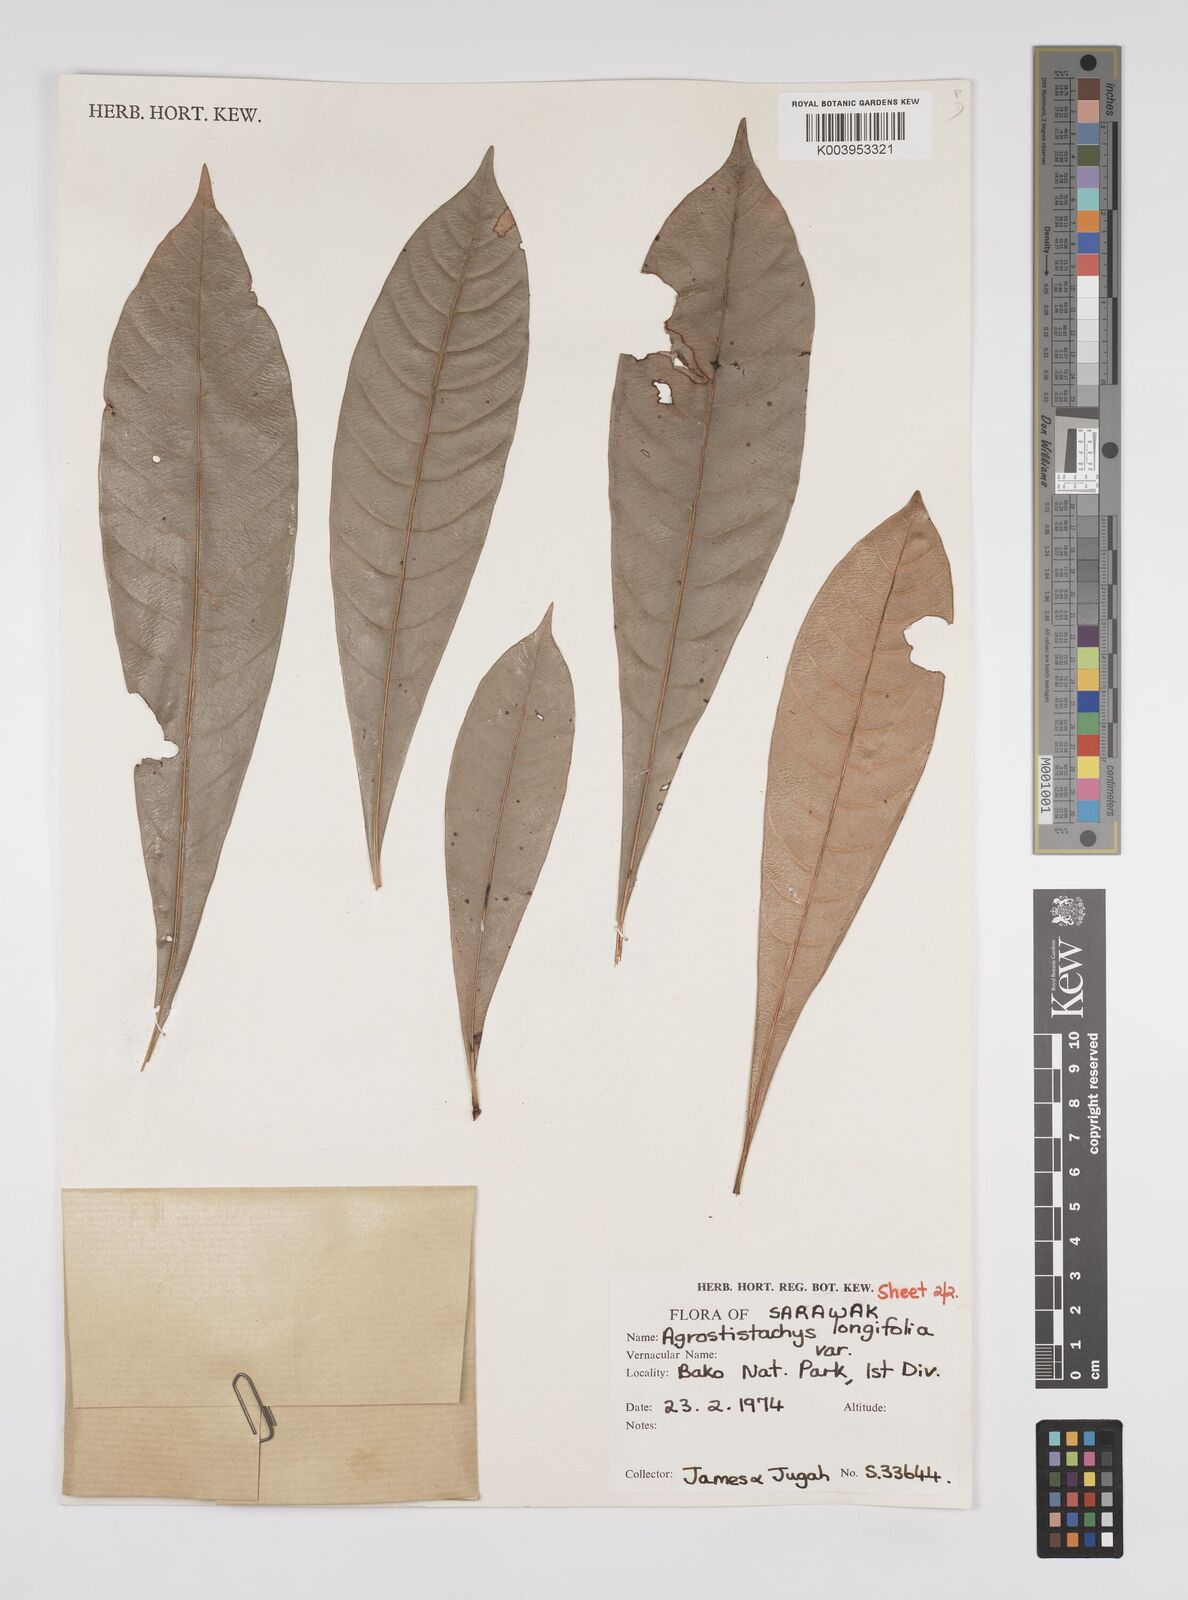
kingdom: Plantae
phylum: Tracheophyta
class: Magnoliopsida
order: Malpighiales
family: Euphorbiaceae
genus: Agrostistachys
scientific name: Agrostistachys
